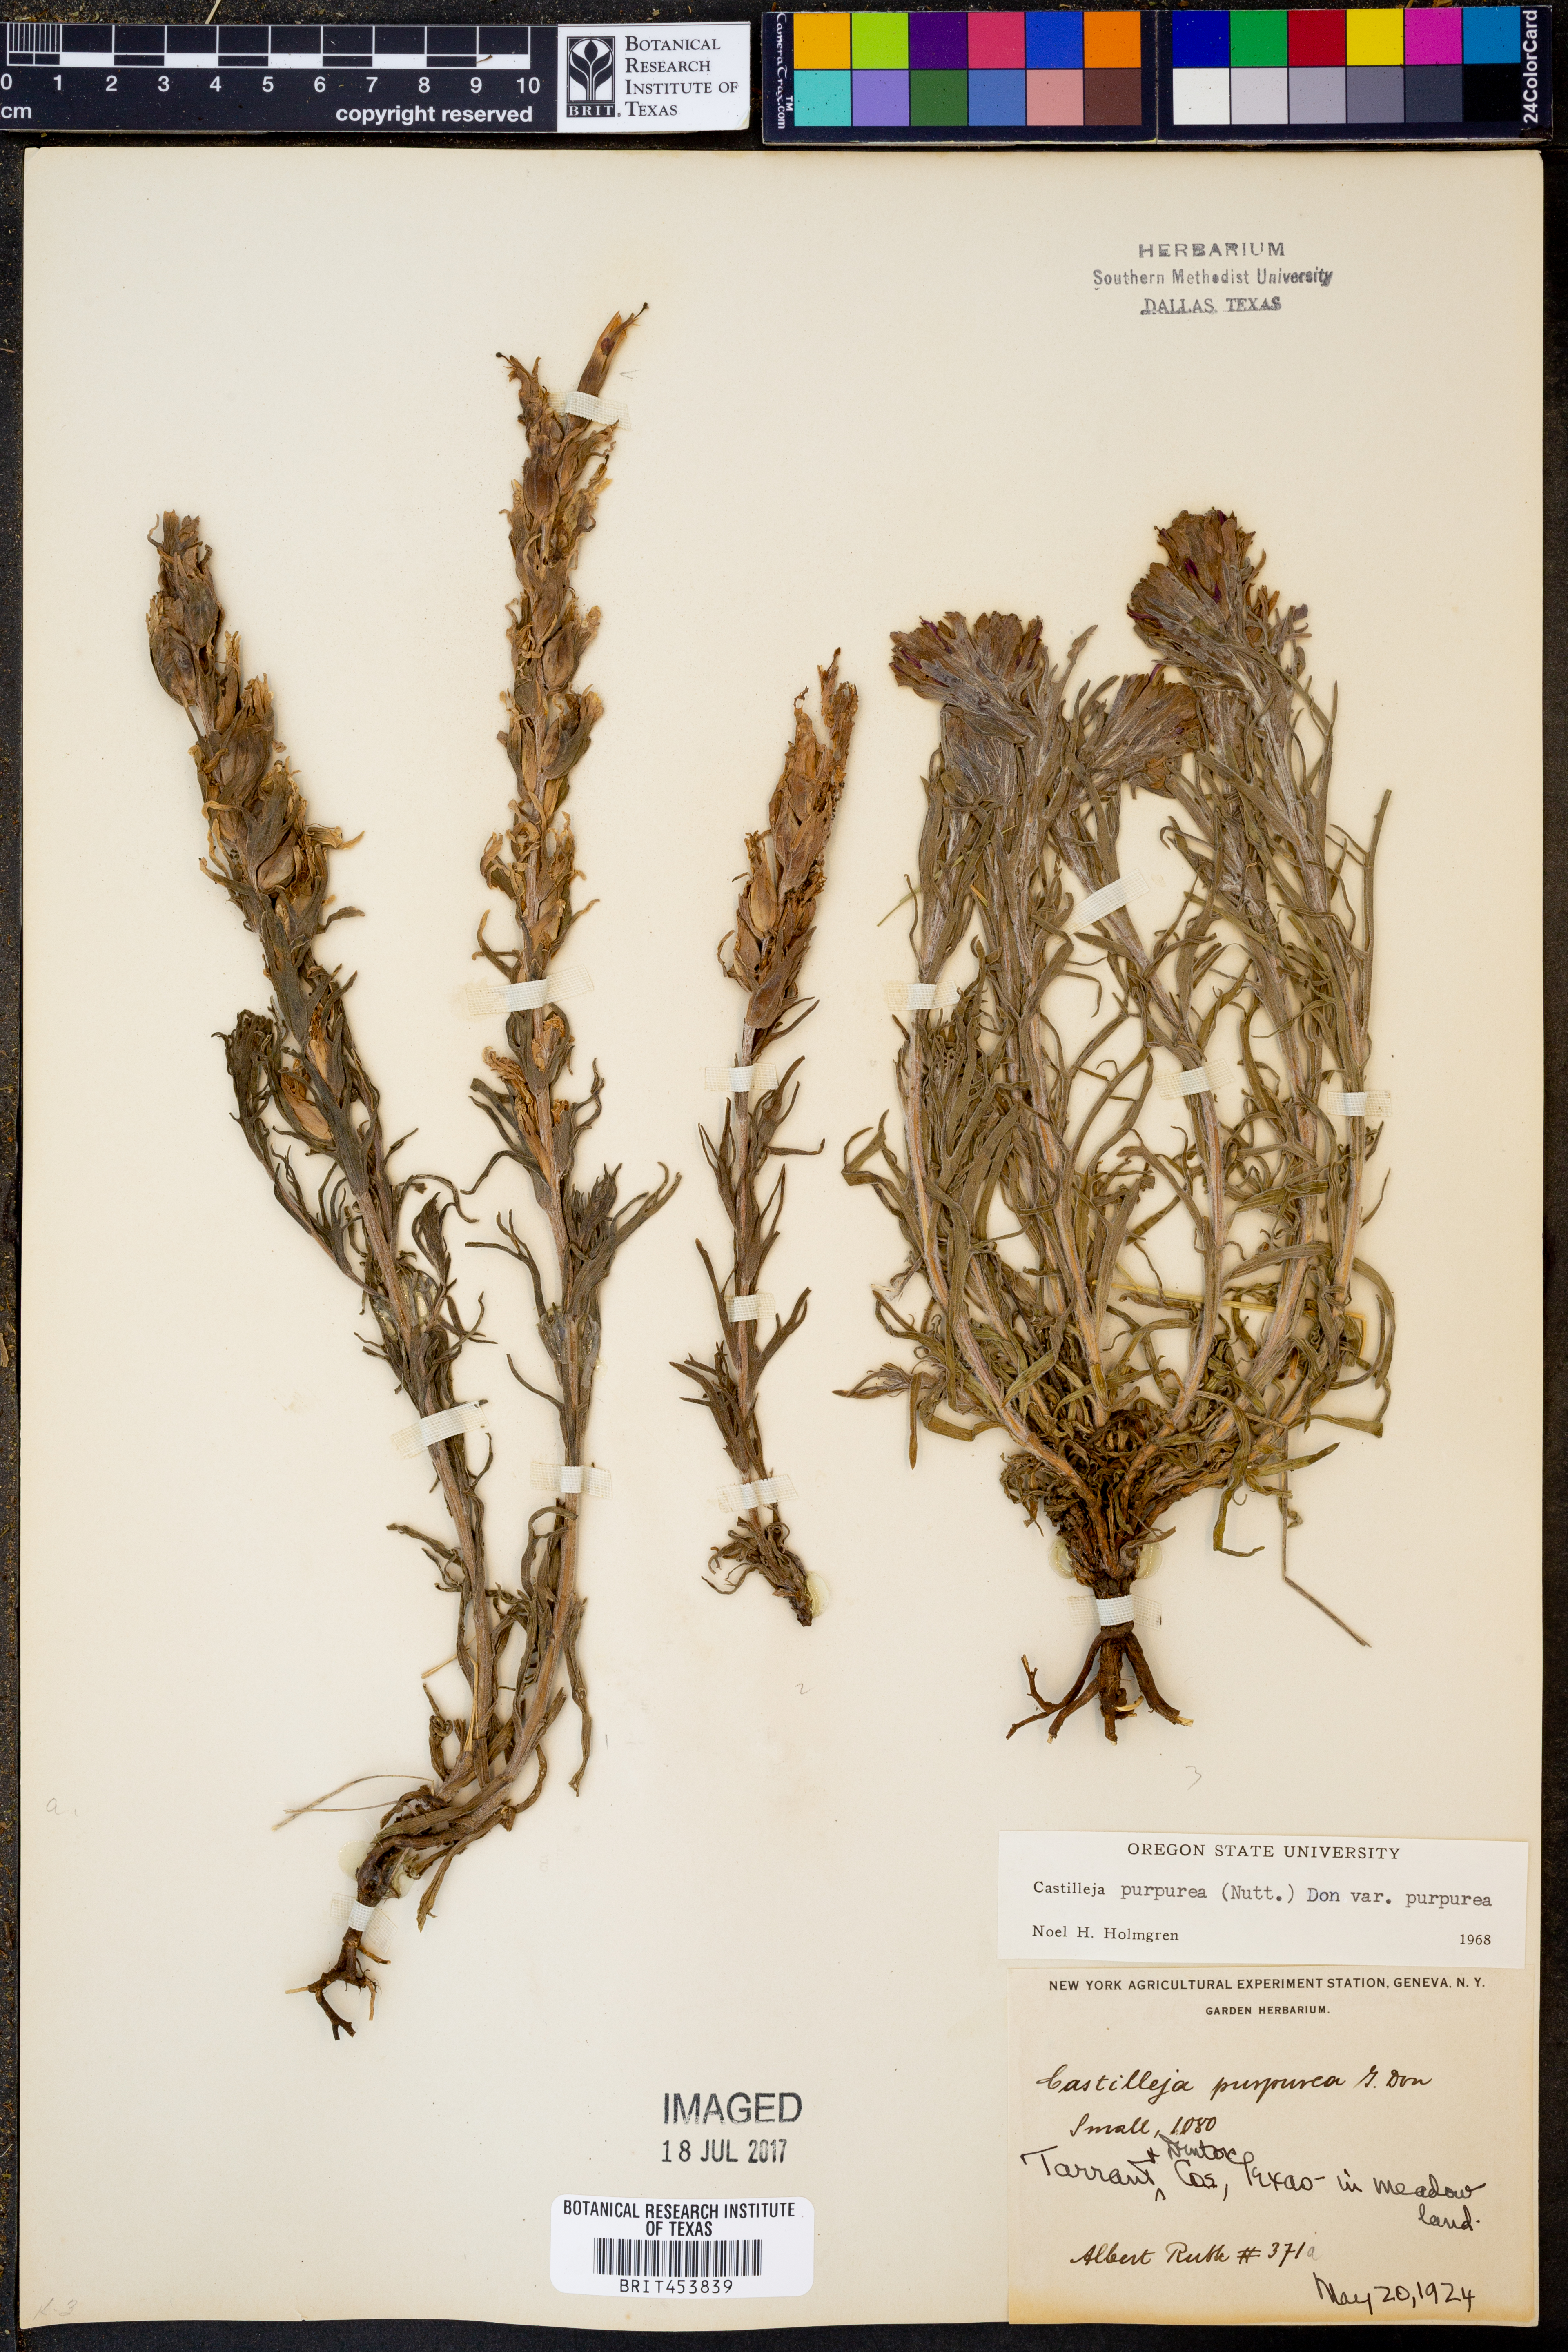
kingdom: Plantae
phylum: Tracheophyta
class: Magnoliopsida
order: Lamiales
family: Orobanchaceae
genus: Castilleja
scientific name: Castilleja purpurea
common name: Plains paintbrush
